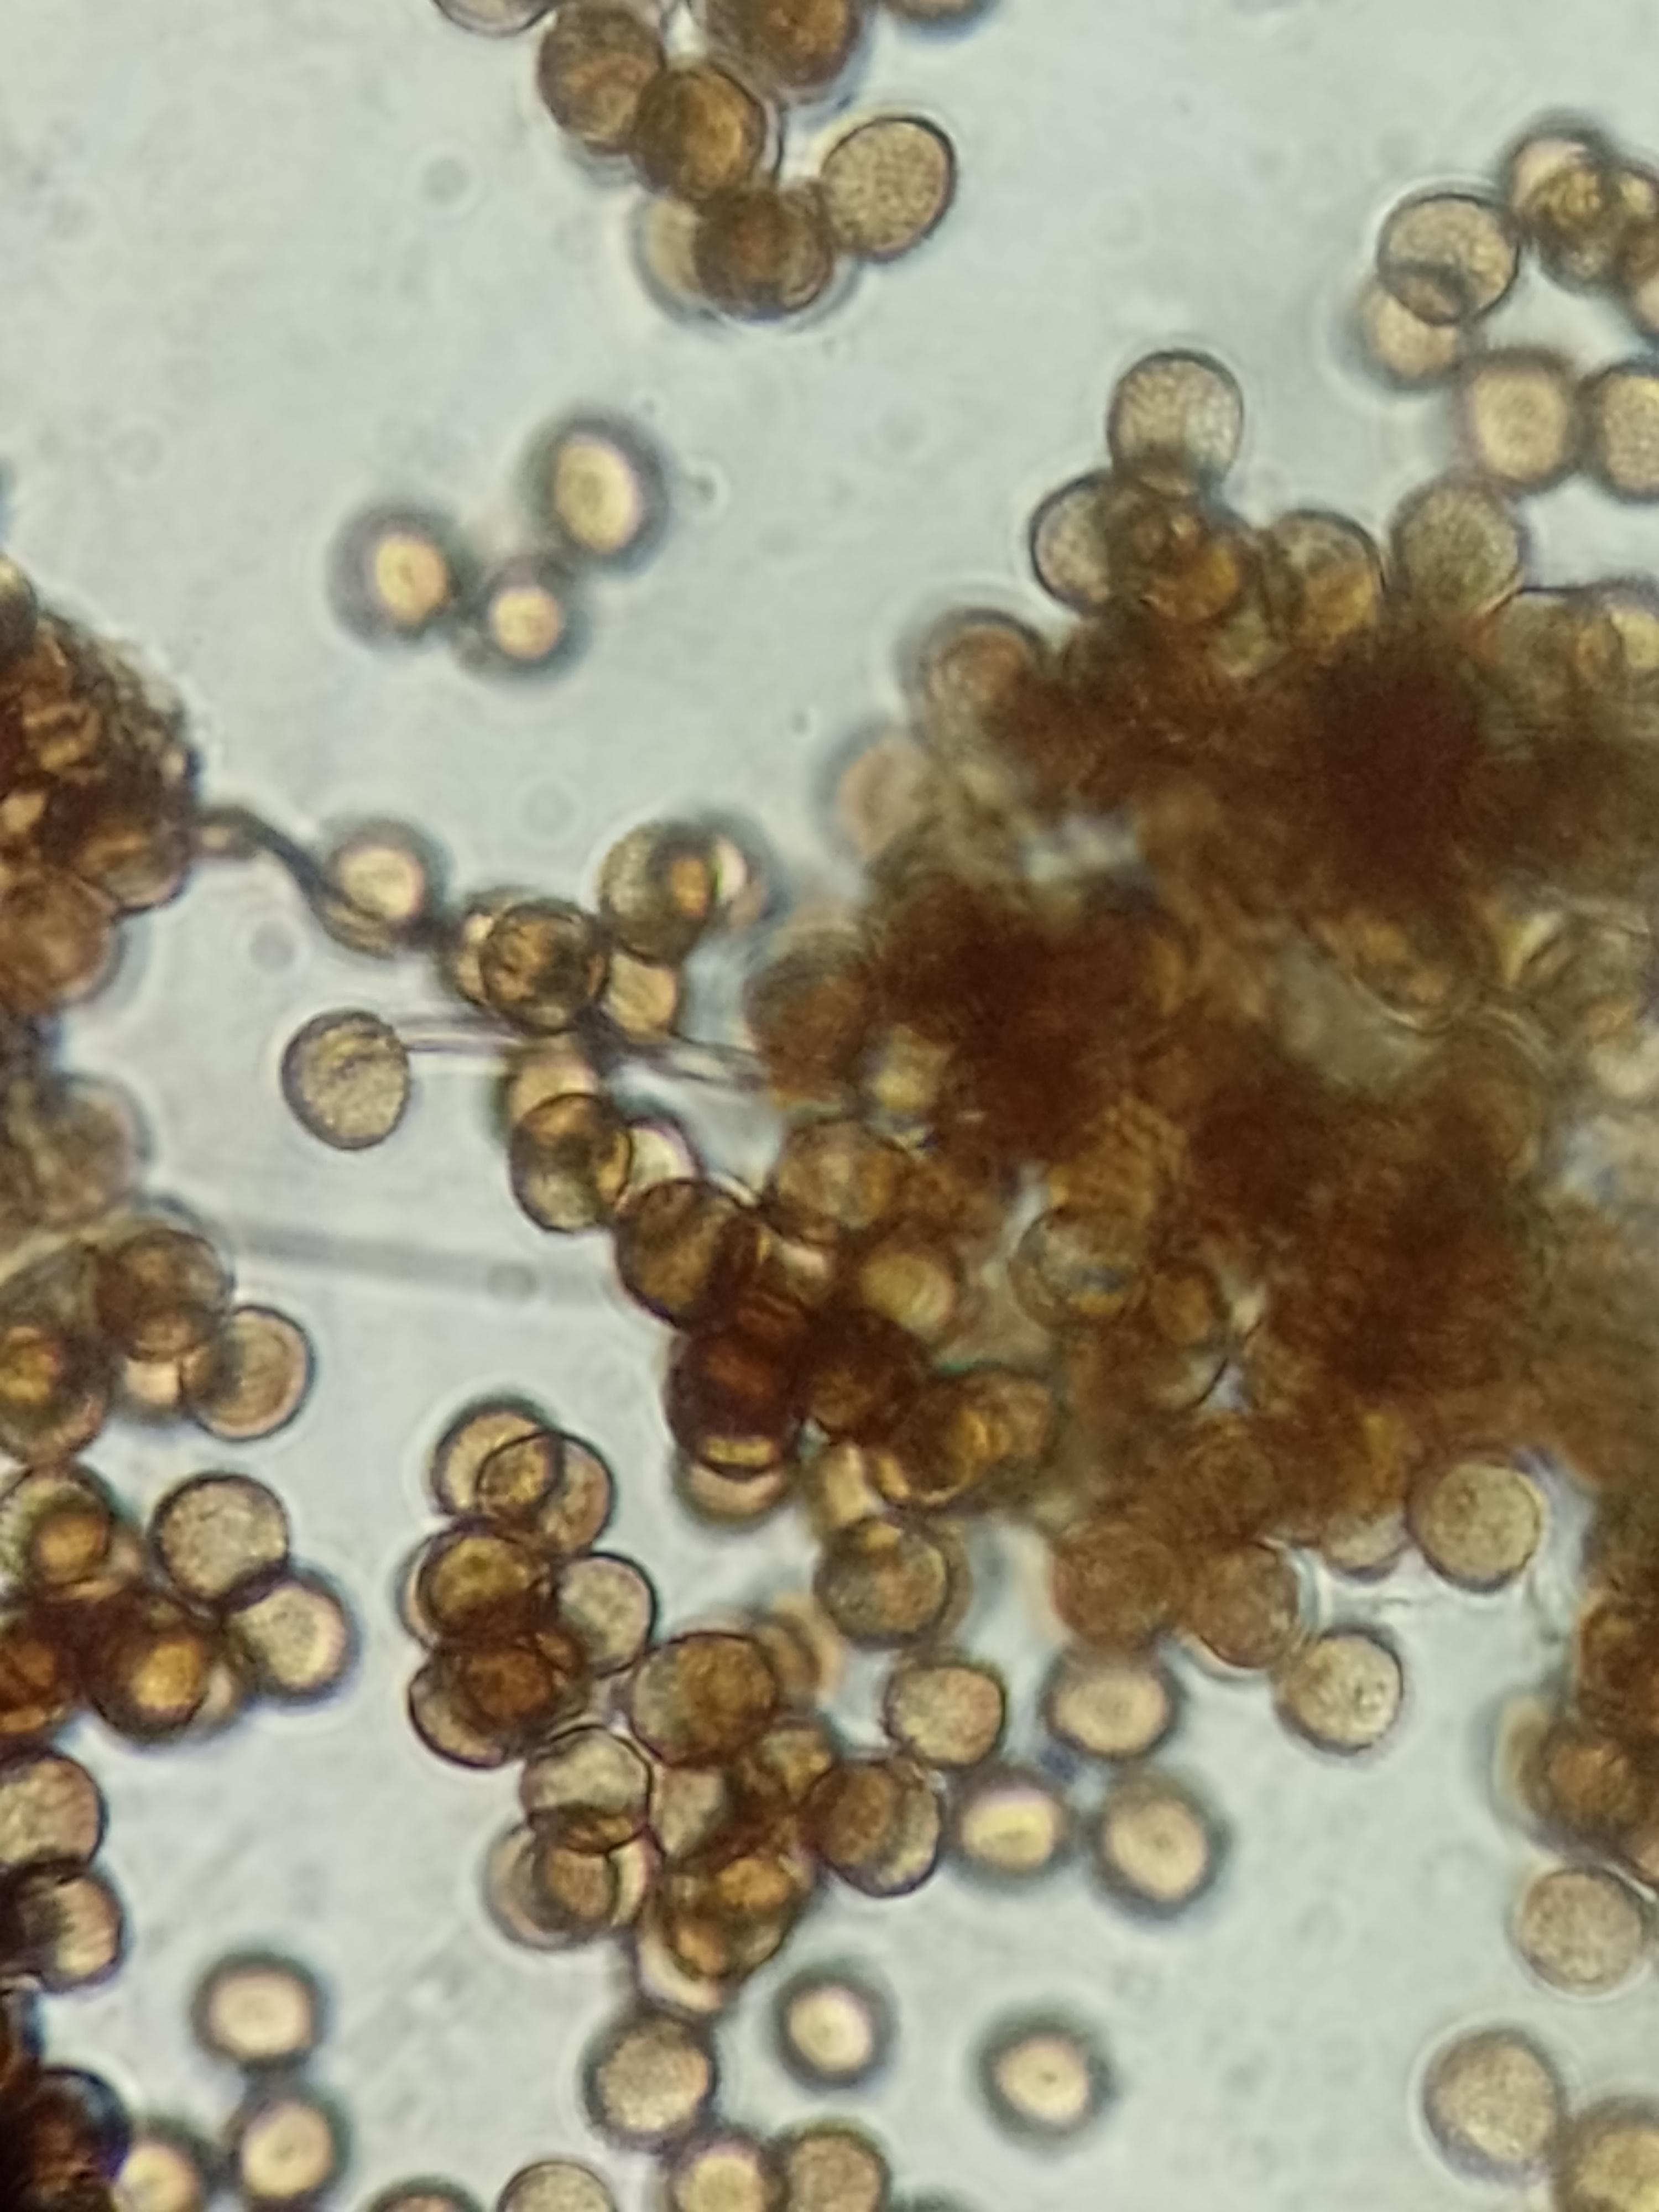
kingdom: Protozoa
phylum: Mycetozoa
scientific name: Mycetozoa
